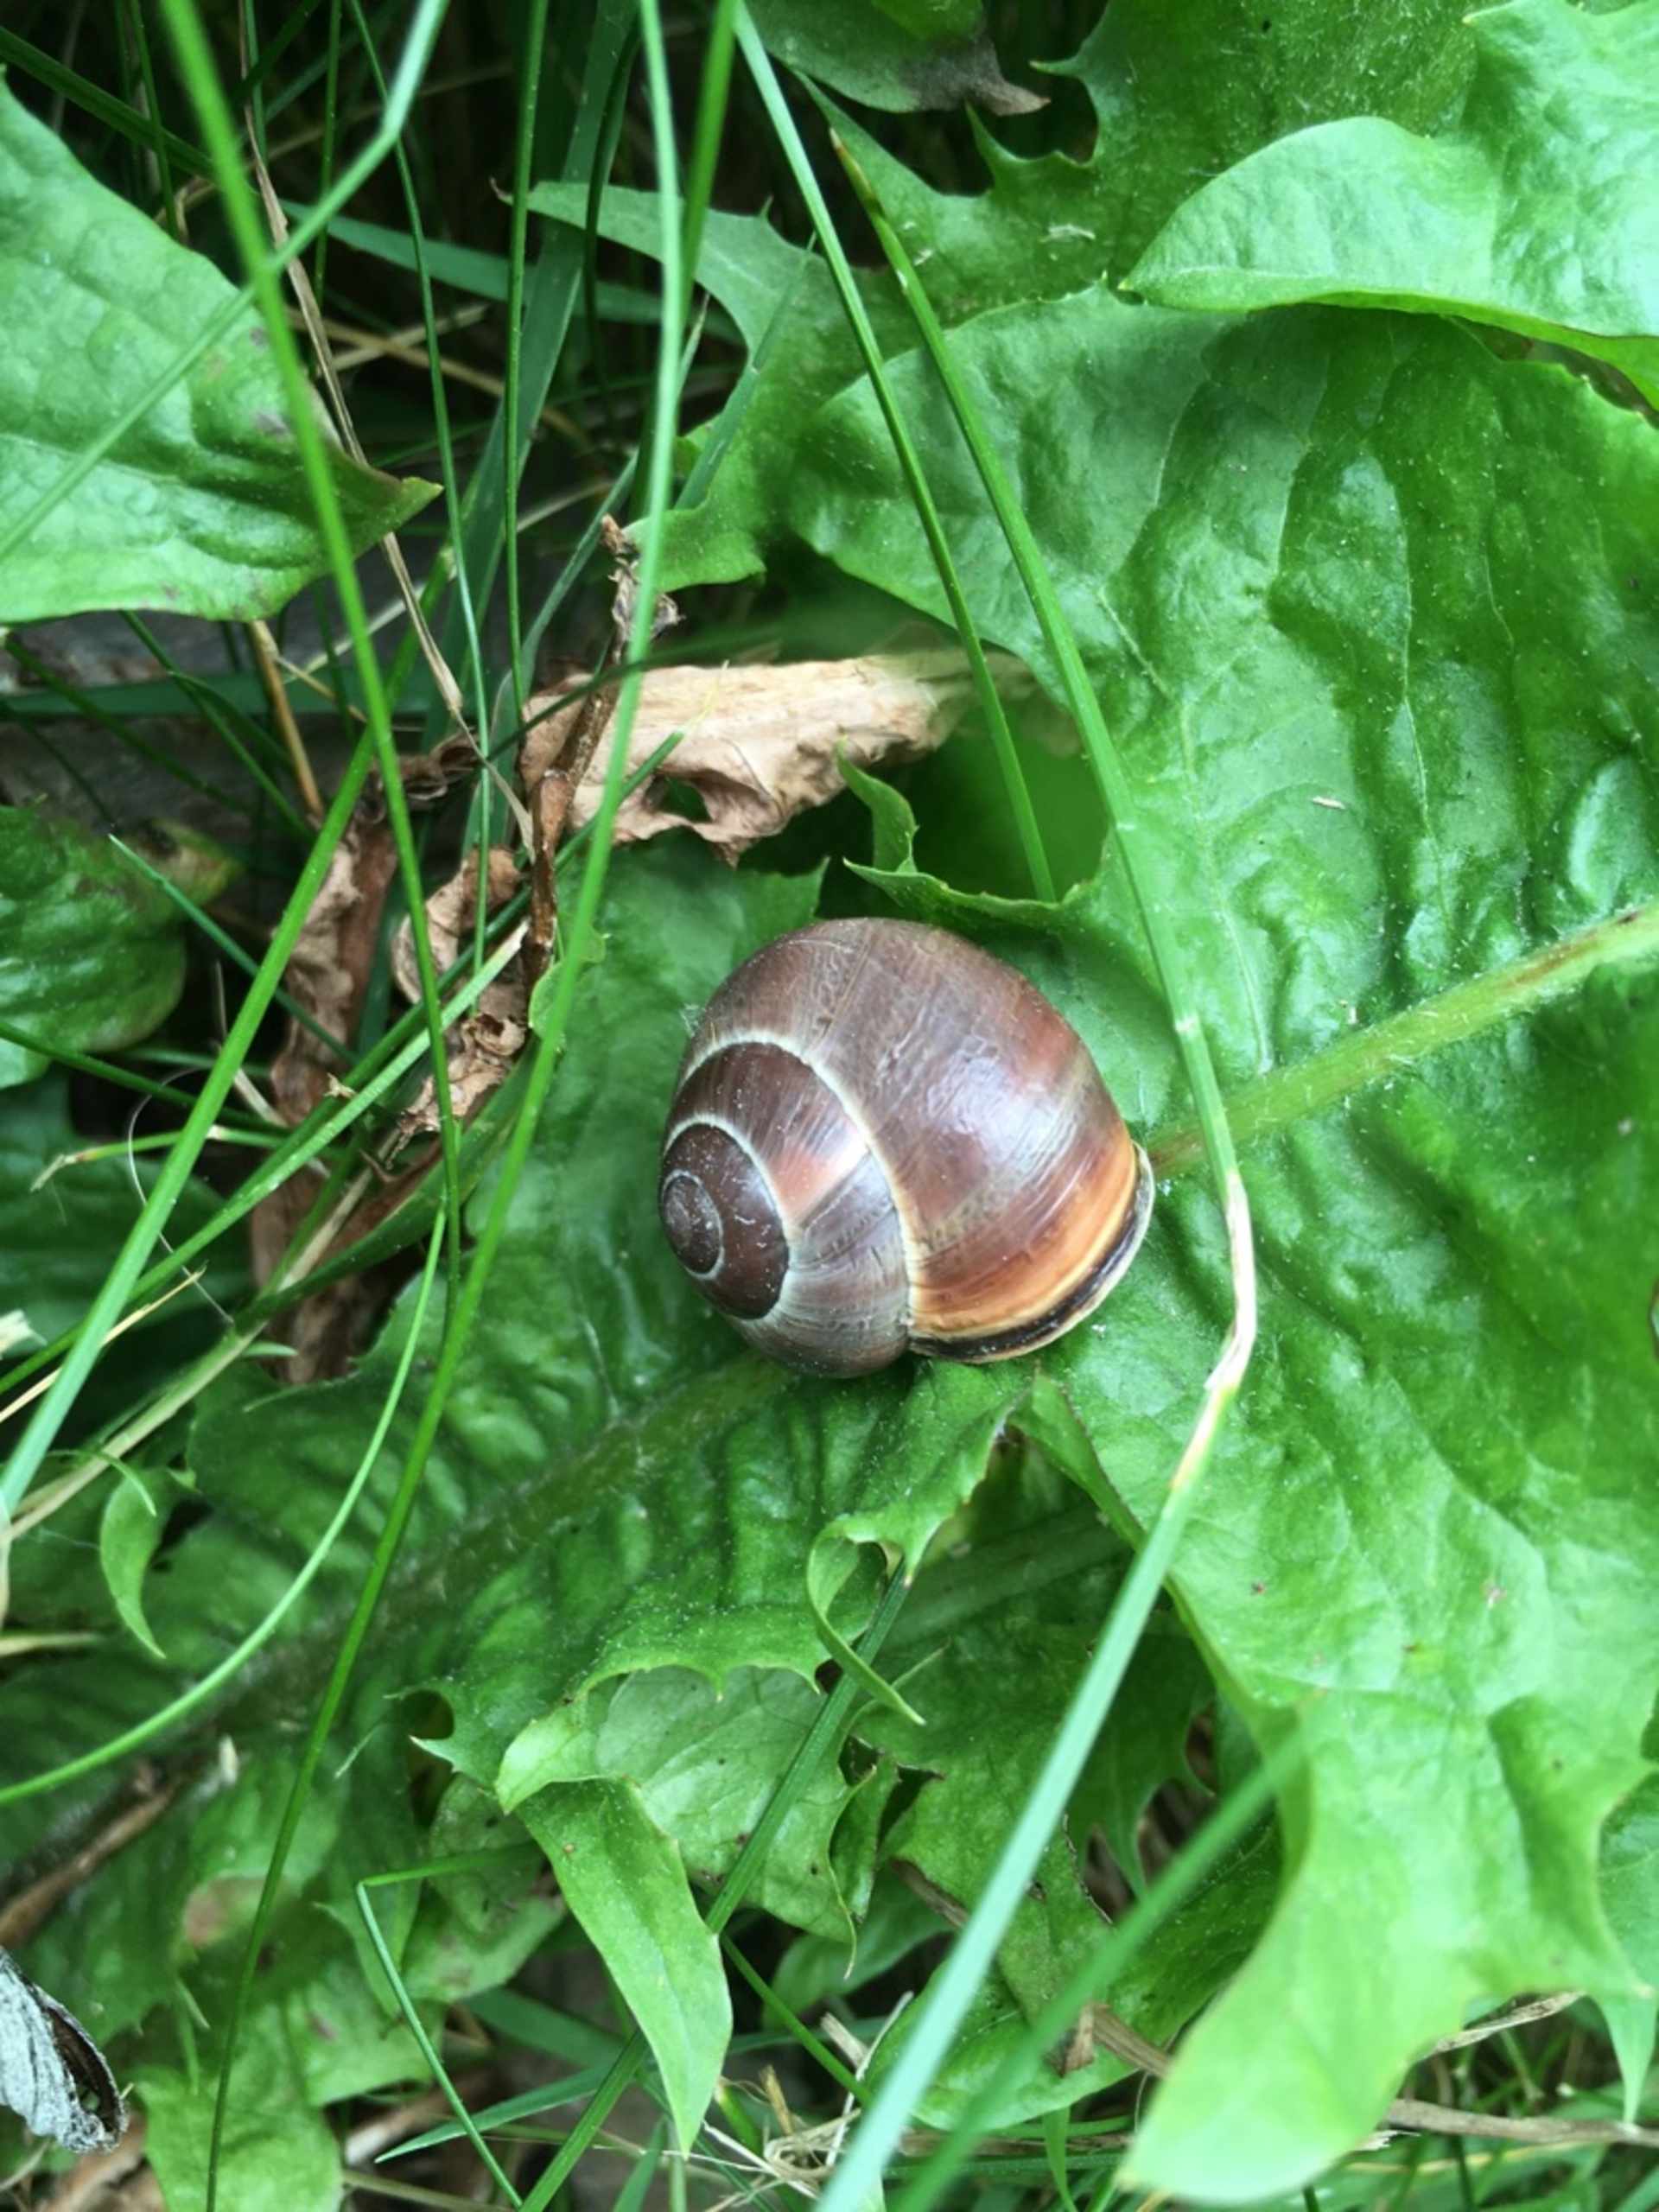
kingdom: Animalia
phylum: Mollusca
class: Gastropoda
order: Stylommatophora
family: Helicidae
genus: Cepaea
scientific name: Cepaea nemoralis
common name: Lundsnegl
